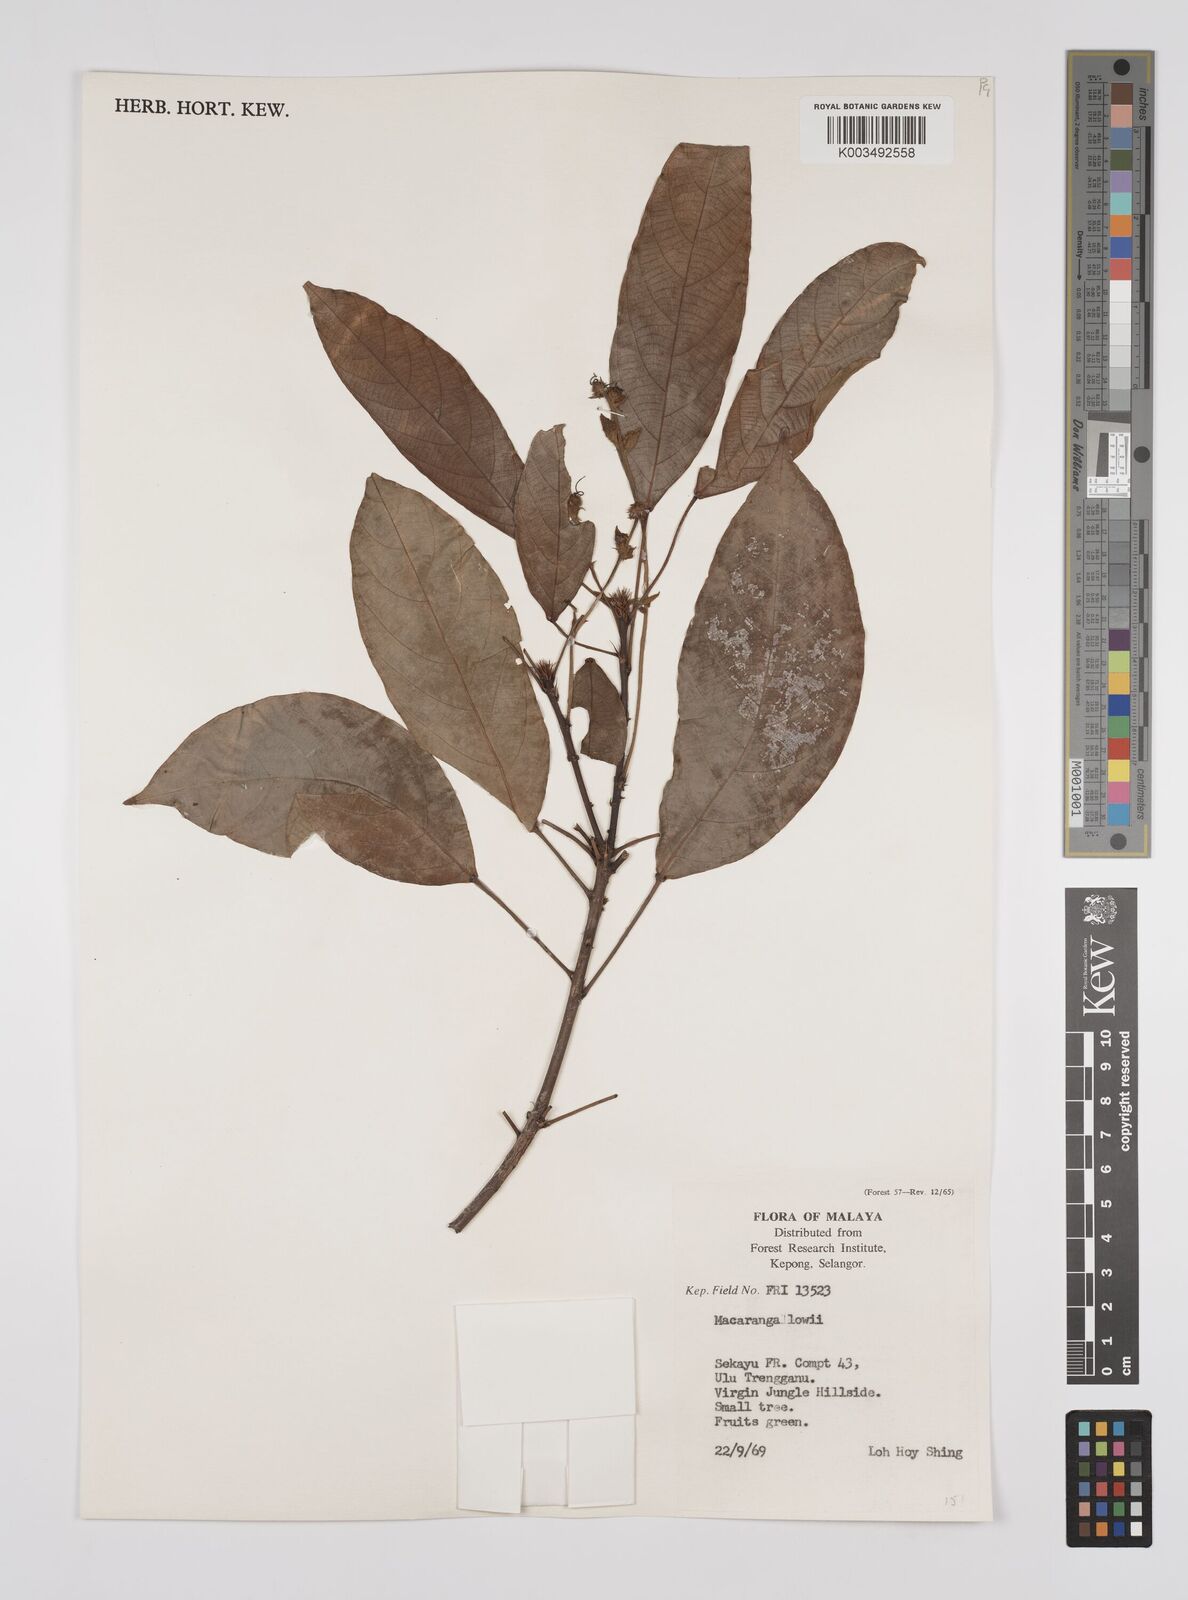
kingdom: Plantae
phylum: Tracheophyta
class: Magnoliopsida
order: Malpighiales
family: Euphorbiaceae
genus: Macaranga
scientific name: Macaranga lowii
